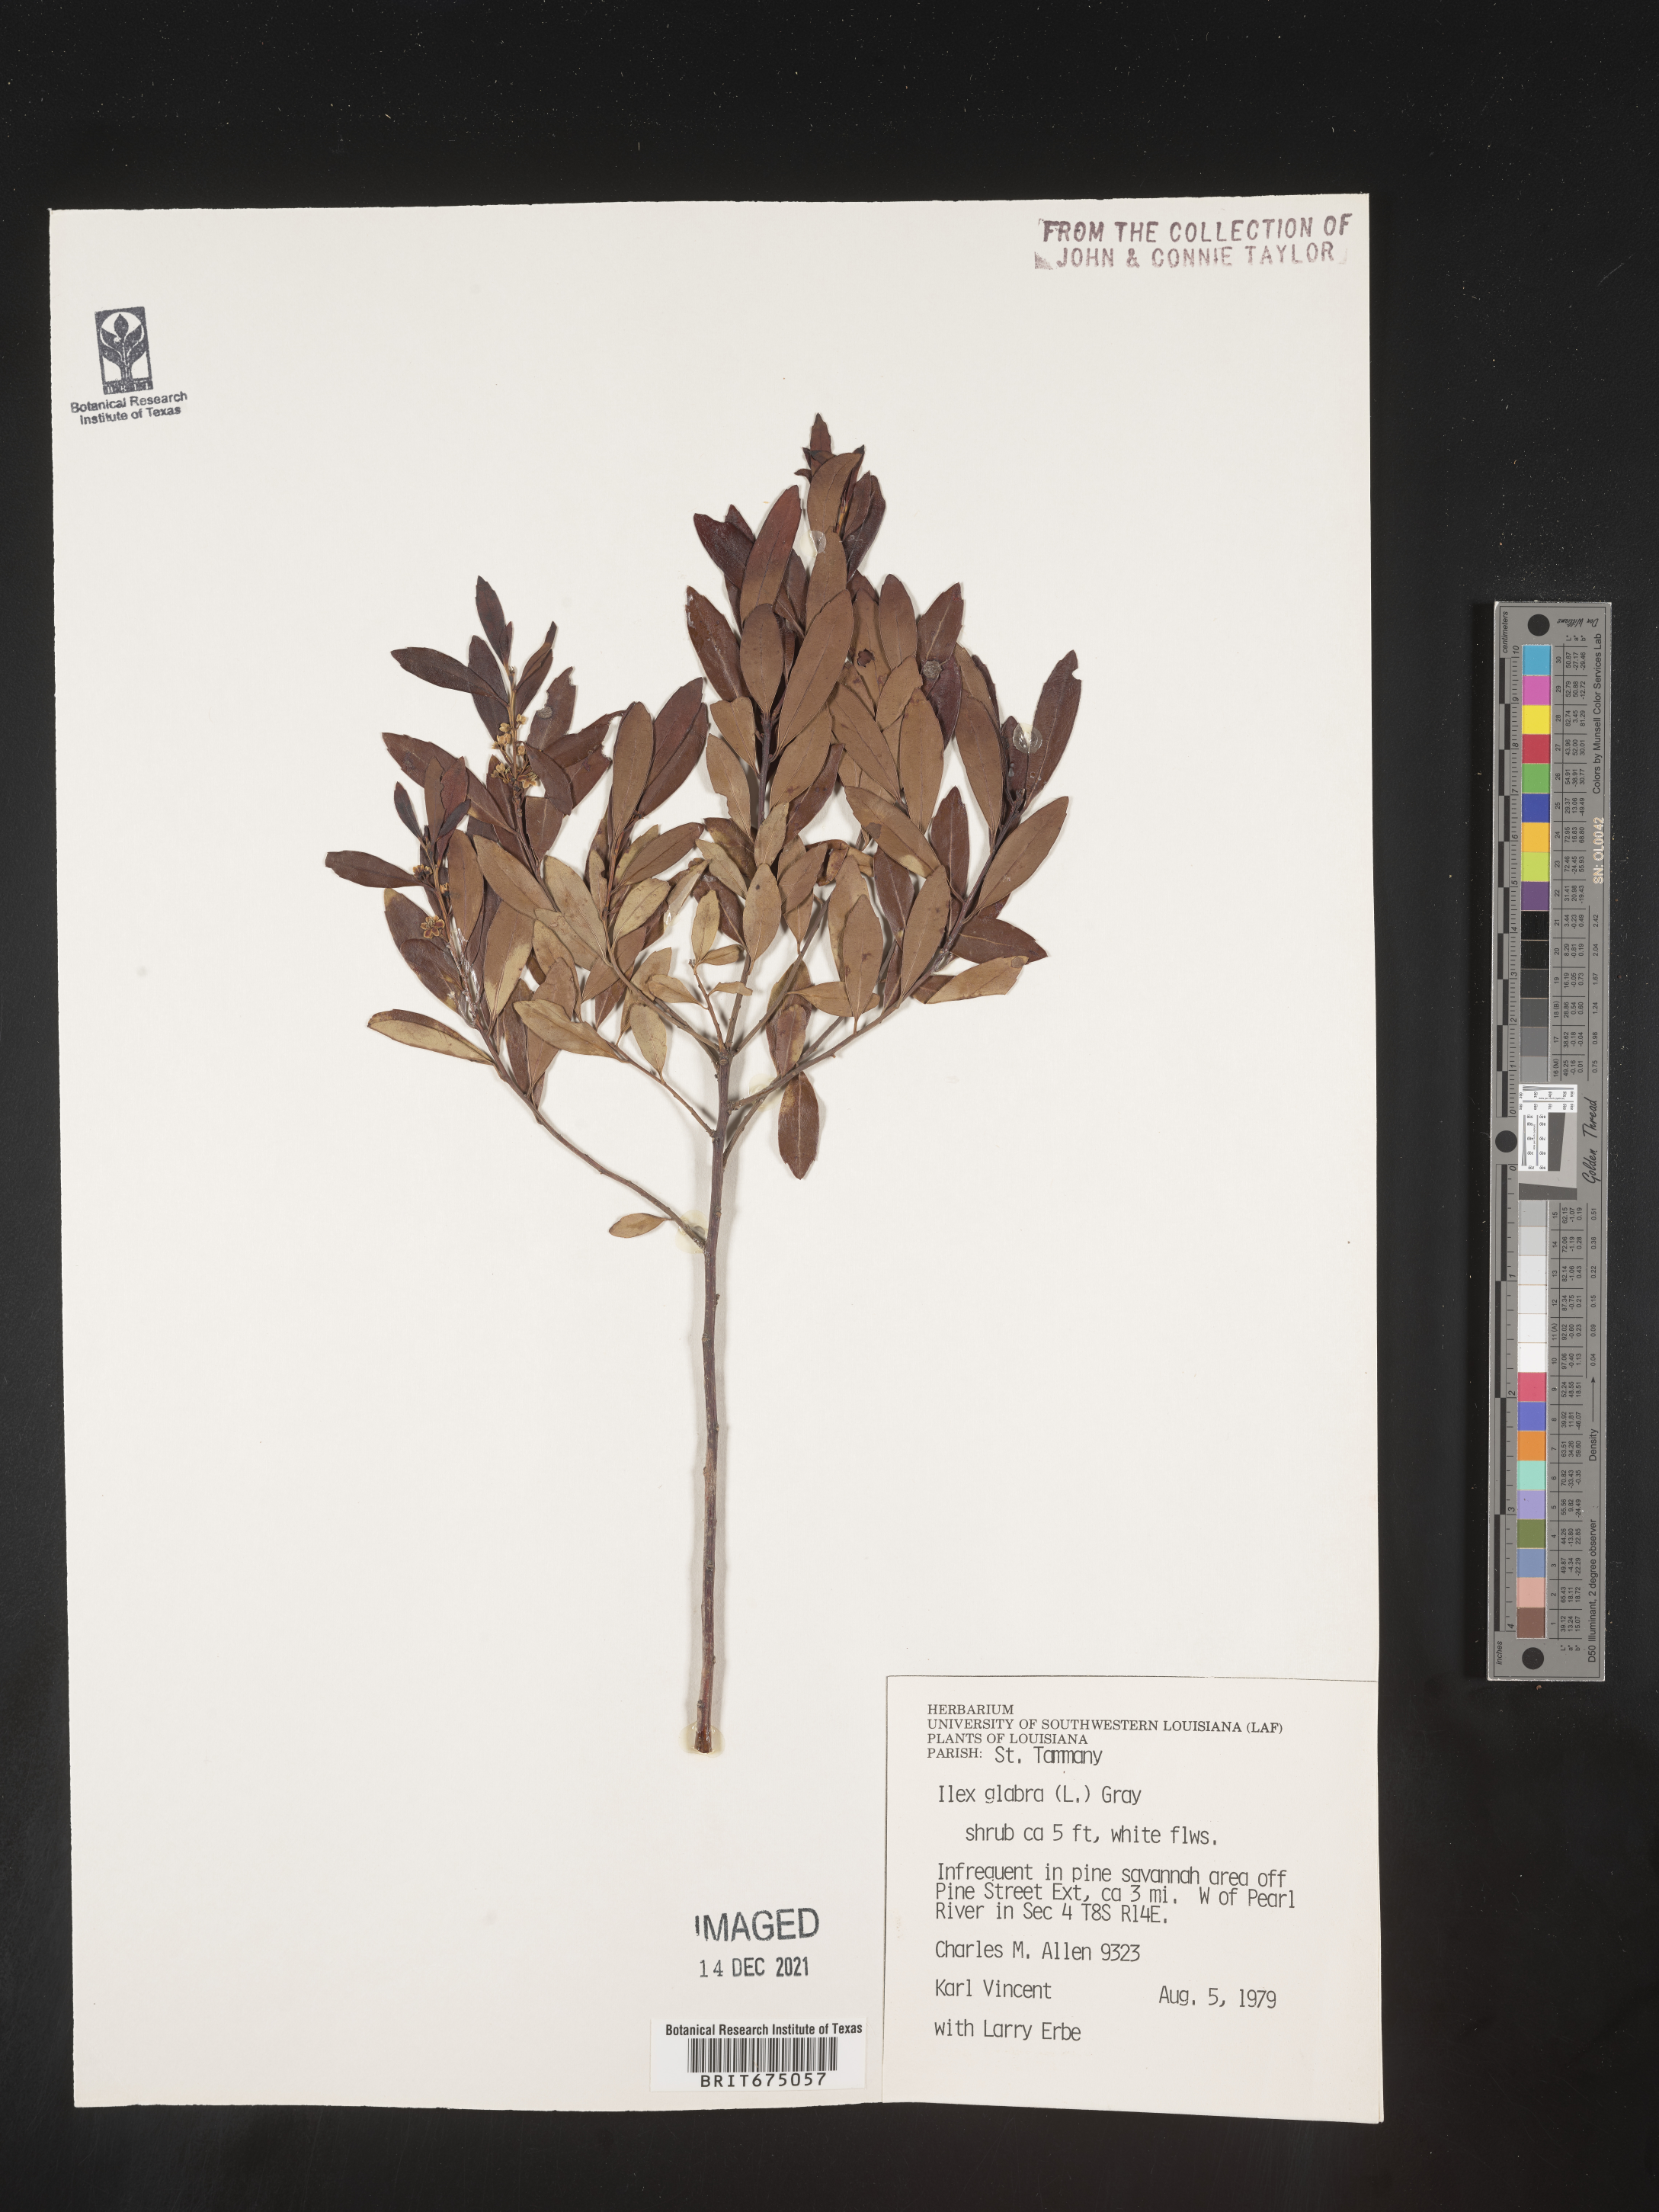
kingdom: Plantae
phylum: Tracheophyta
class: Magnoliopsida
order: Aquifoliales
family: Aquifoliaceae
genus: Ilex
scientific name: Ilex glabra
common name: Bitter gallberry
